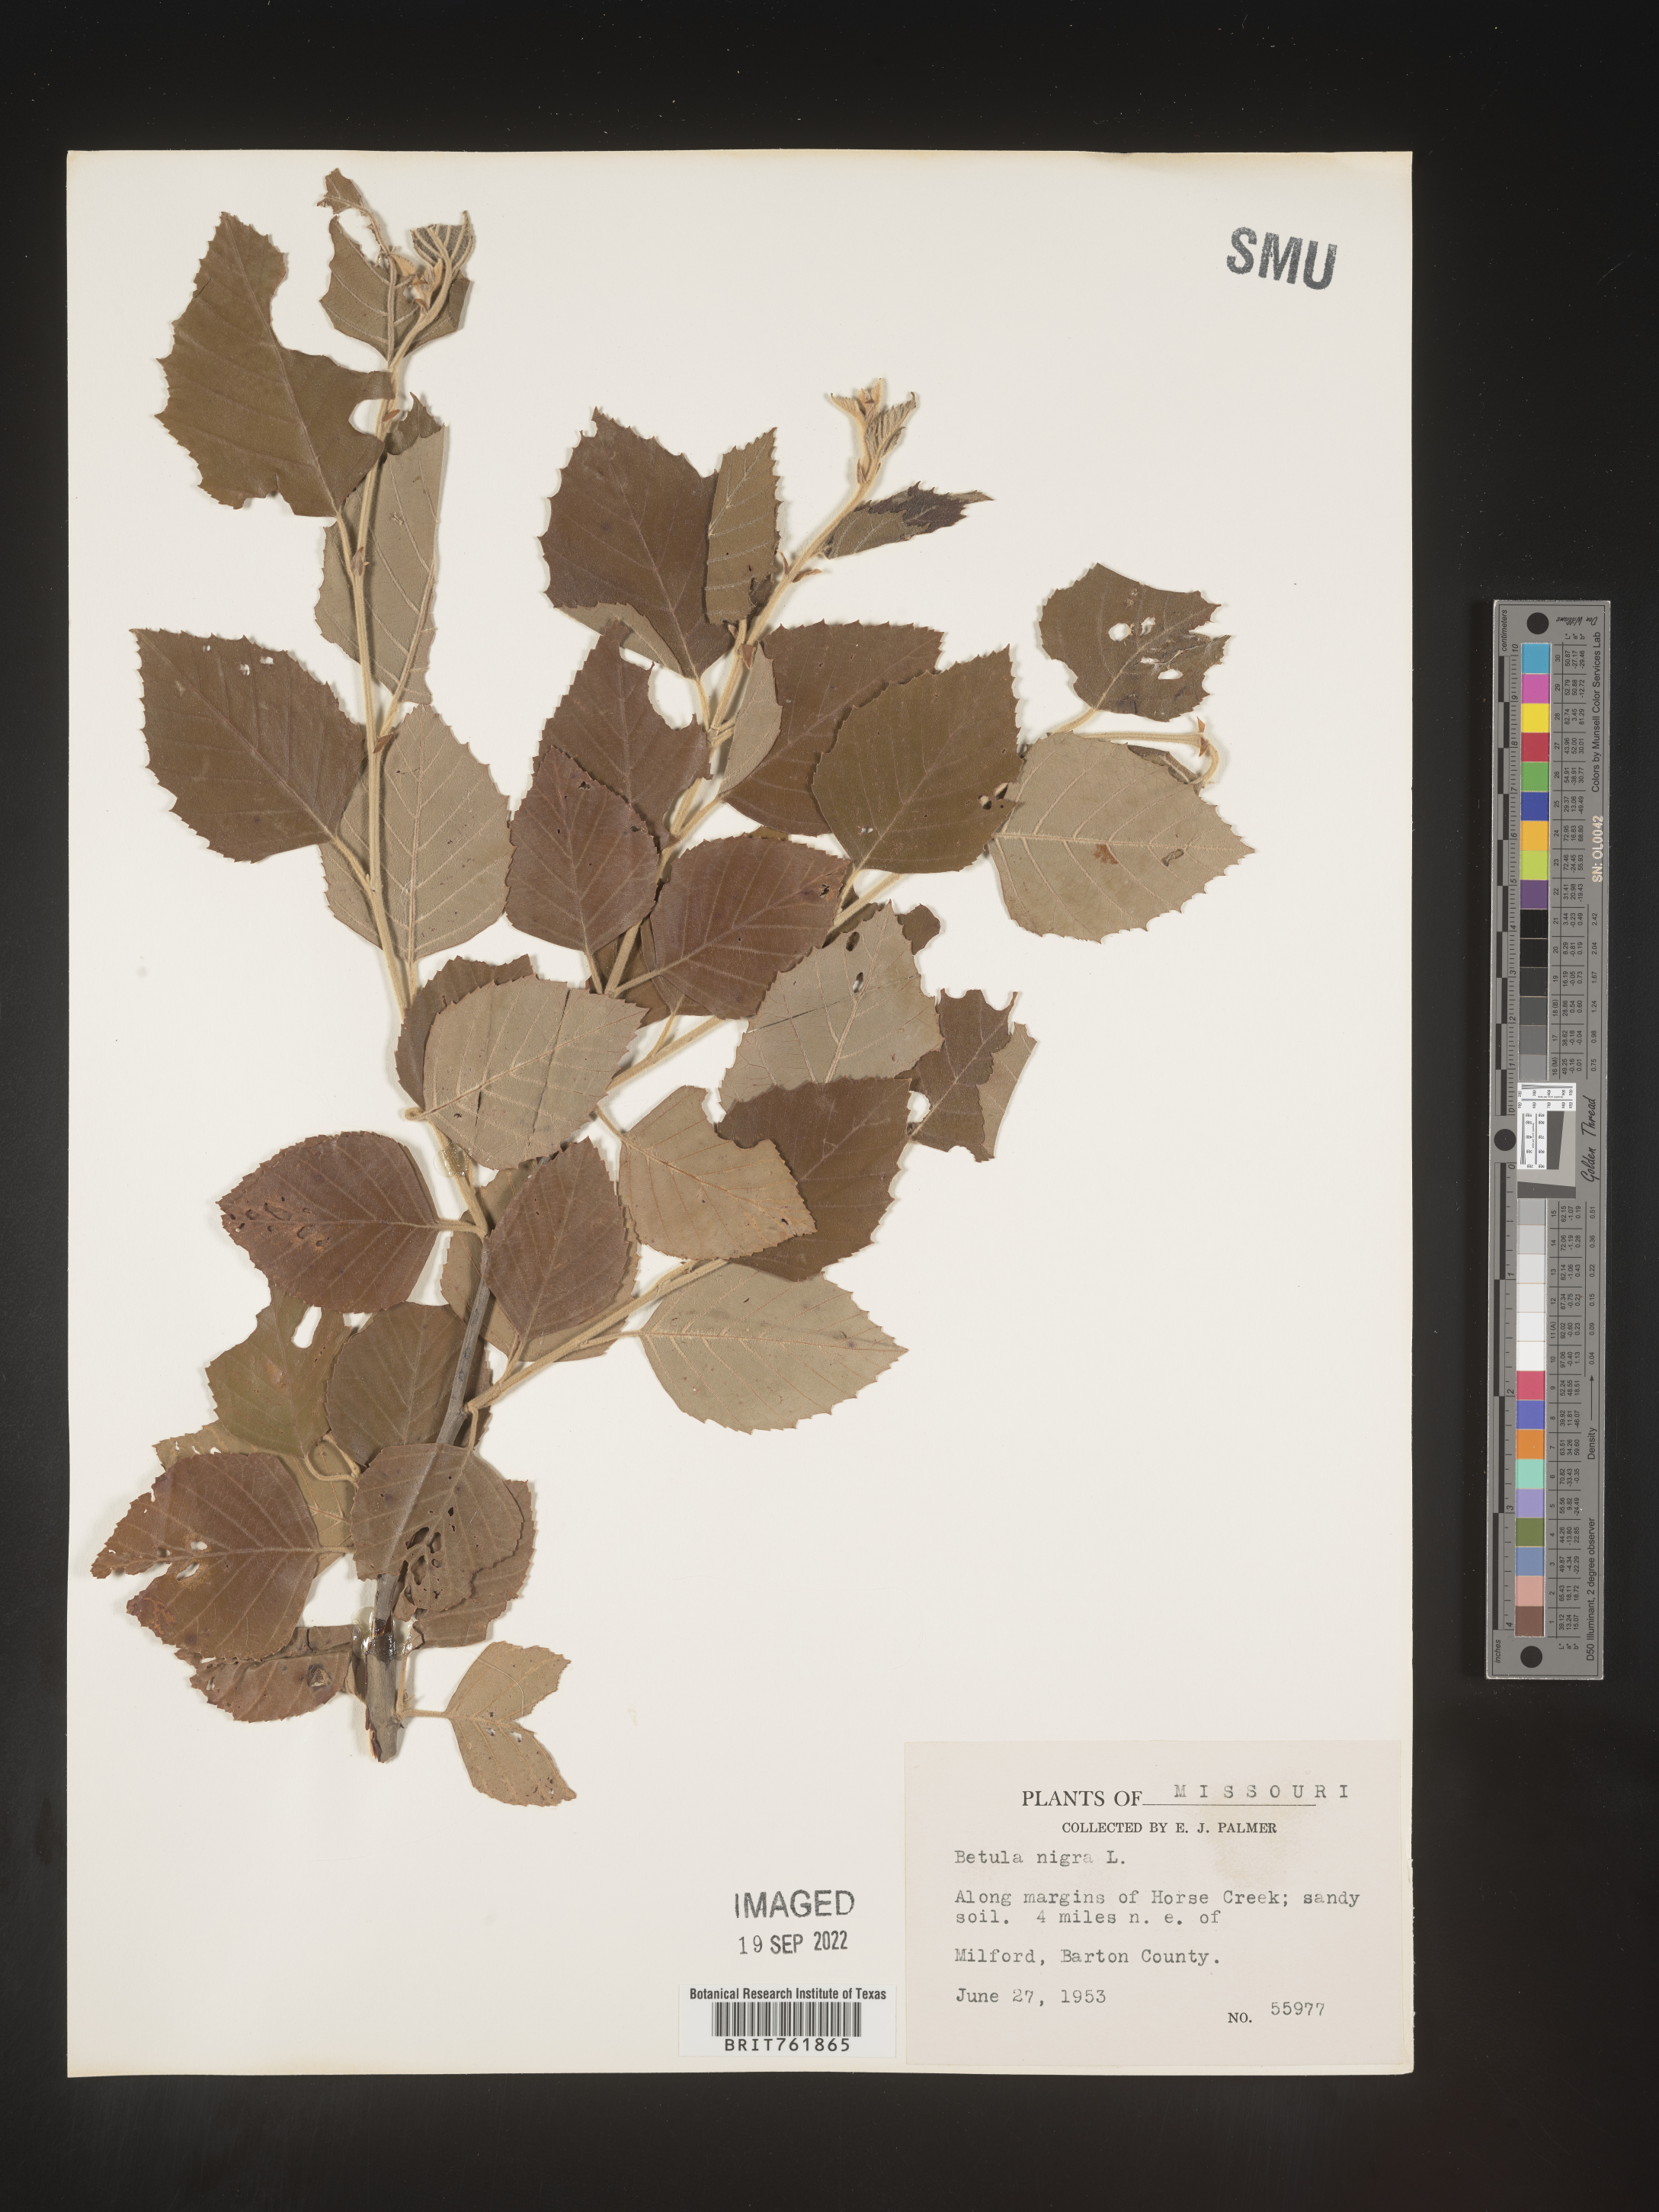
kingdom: Plantae
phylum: Tracheophyta
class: Magnoliopsida
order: Fagales
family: Betulaceae
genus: Betula
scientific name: Betula nigra
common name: Black birch
